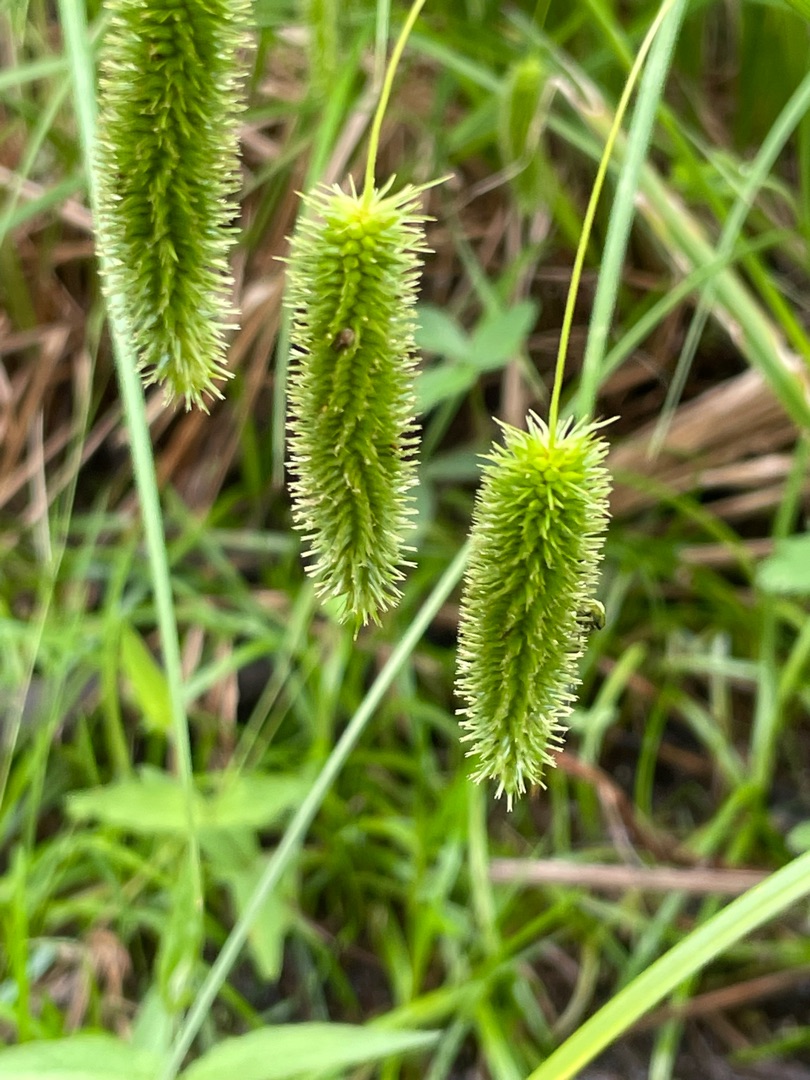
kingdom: Plantae
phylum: Tracheophyta
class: Liliopsida
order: Poales
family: Cyperaceae
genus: Carex
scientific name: Carex pseudocyperus
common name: Knippe-star
